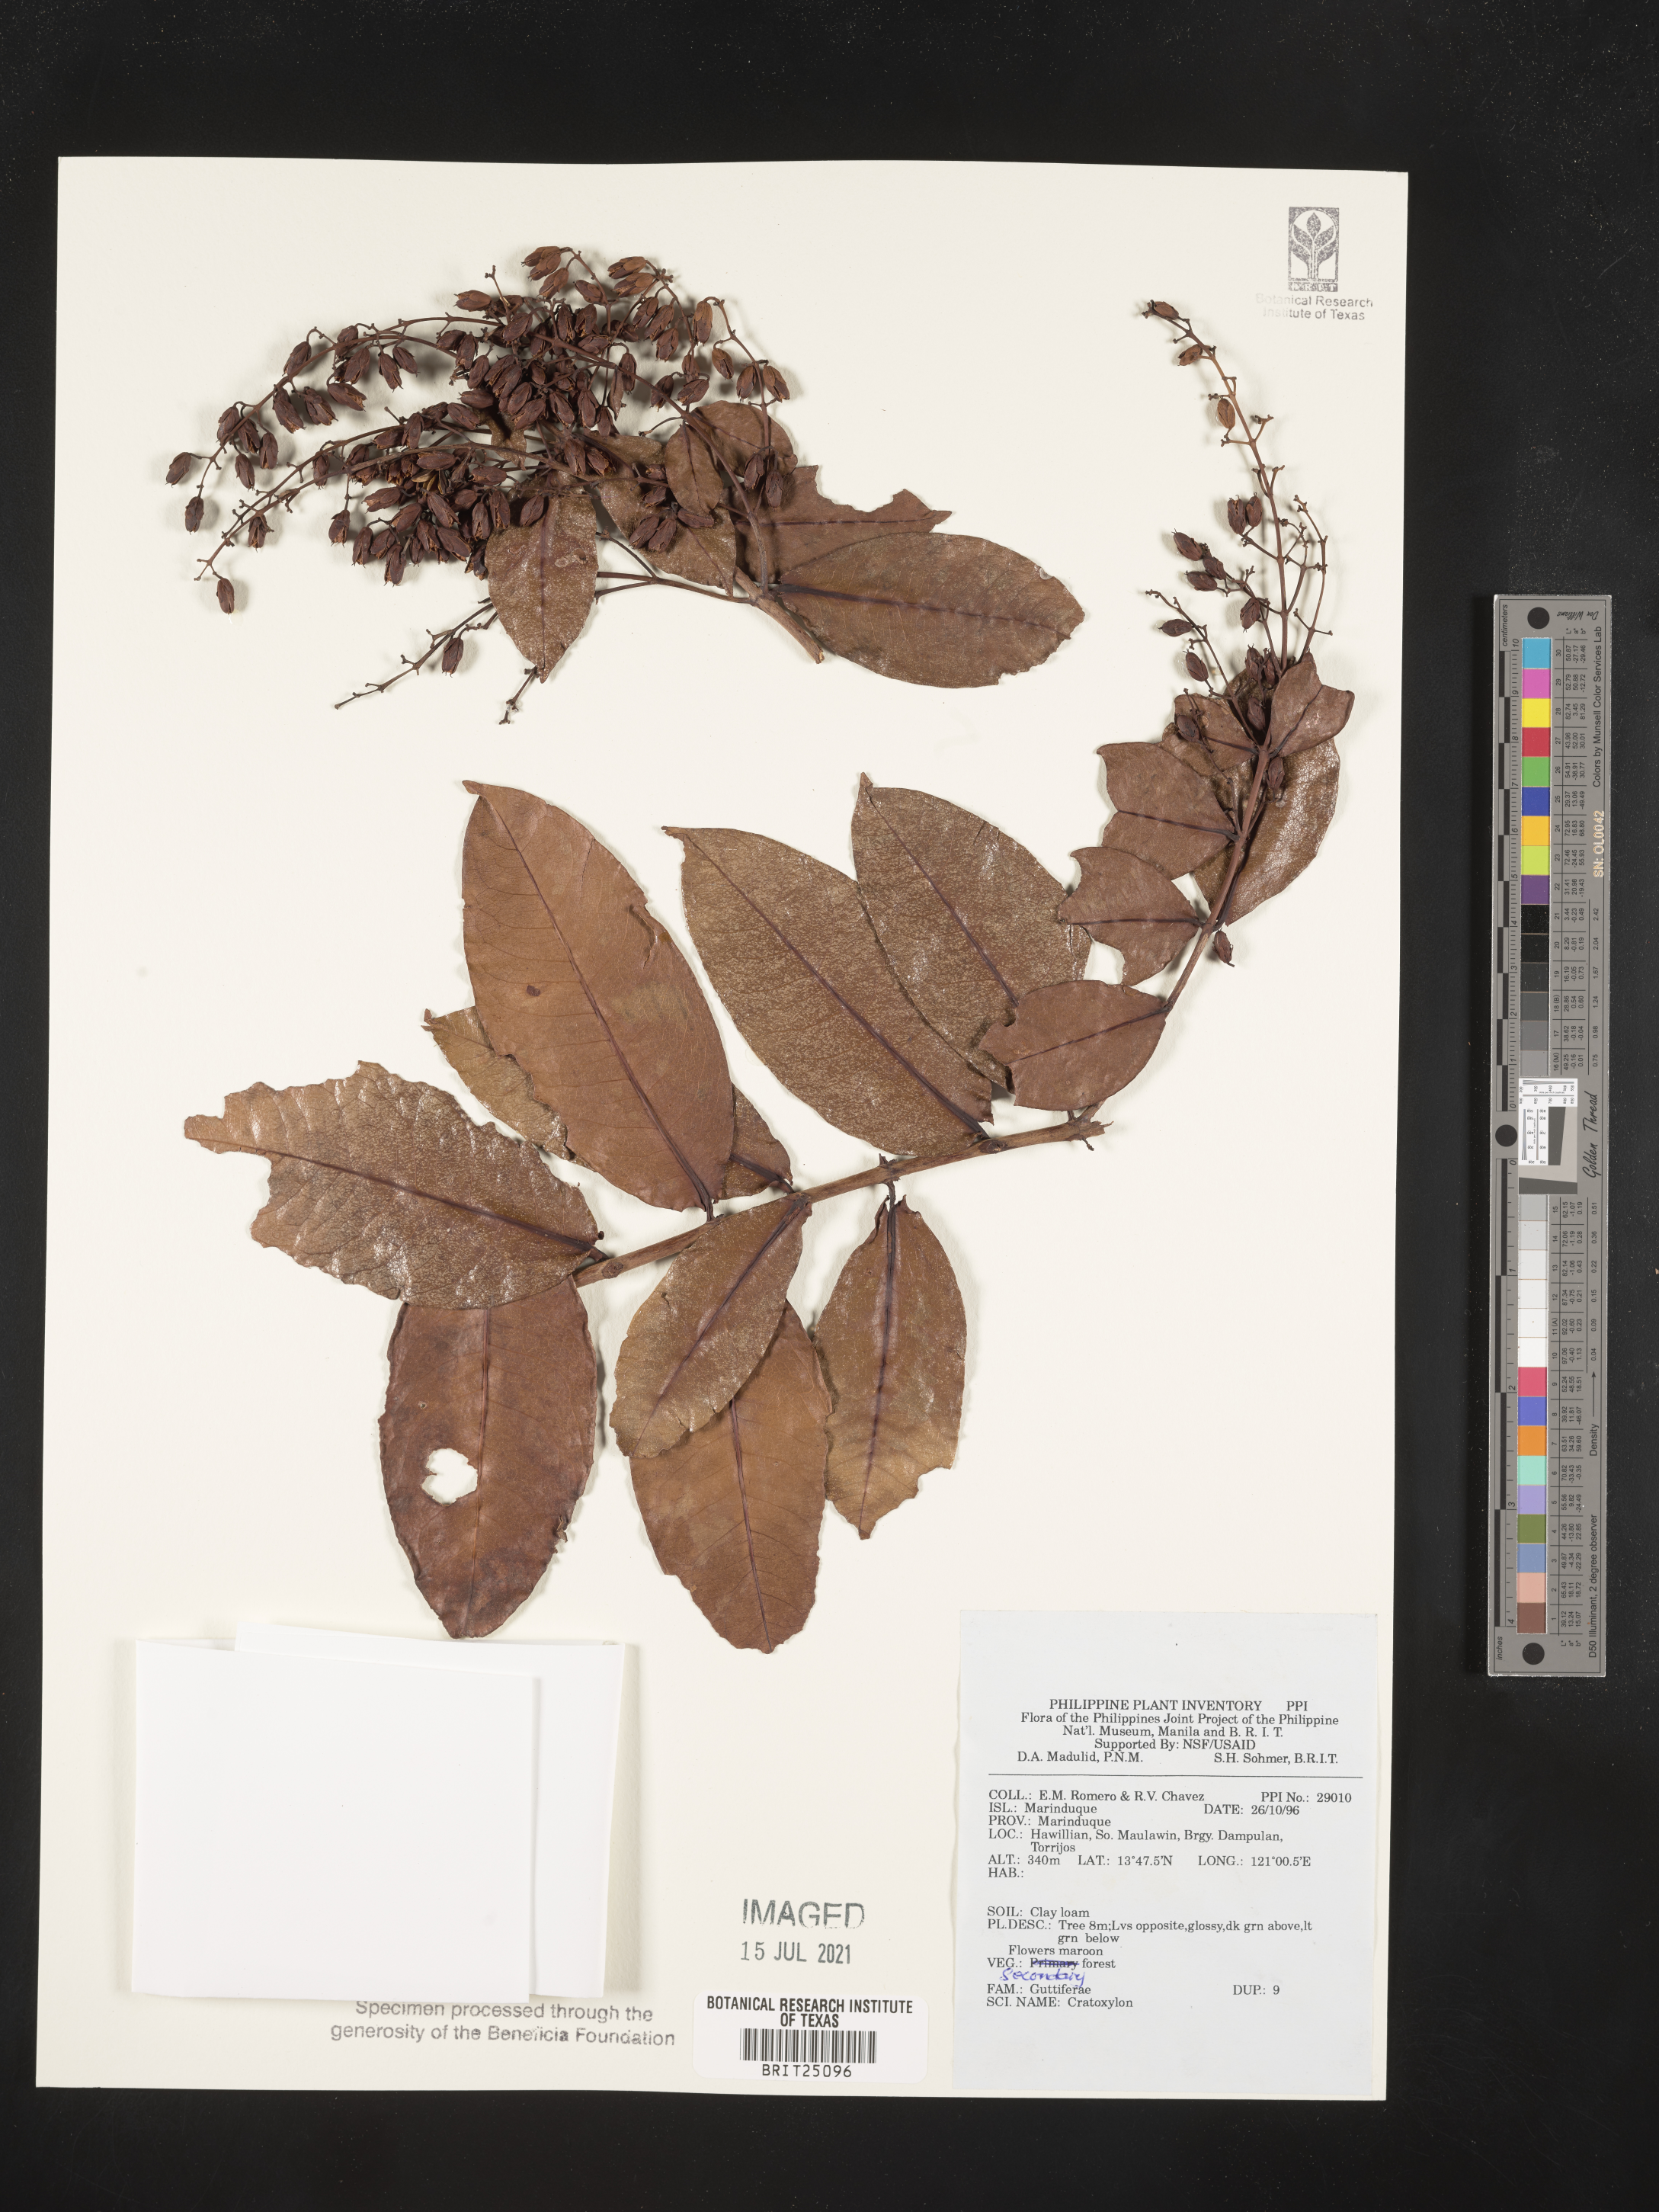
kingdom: Plantae
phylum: Tracheophyta
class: Magnoliopsida
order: Malpighiales
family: Hypericaceae
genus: Cratoxylum
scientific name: Cratoxylum
